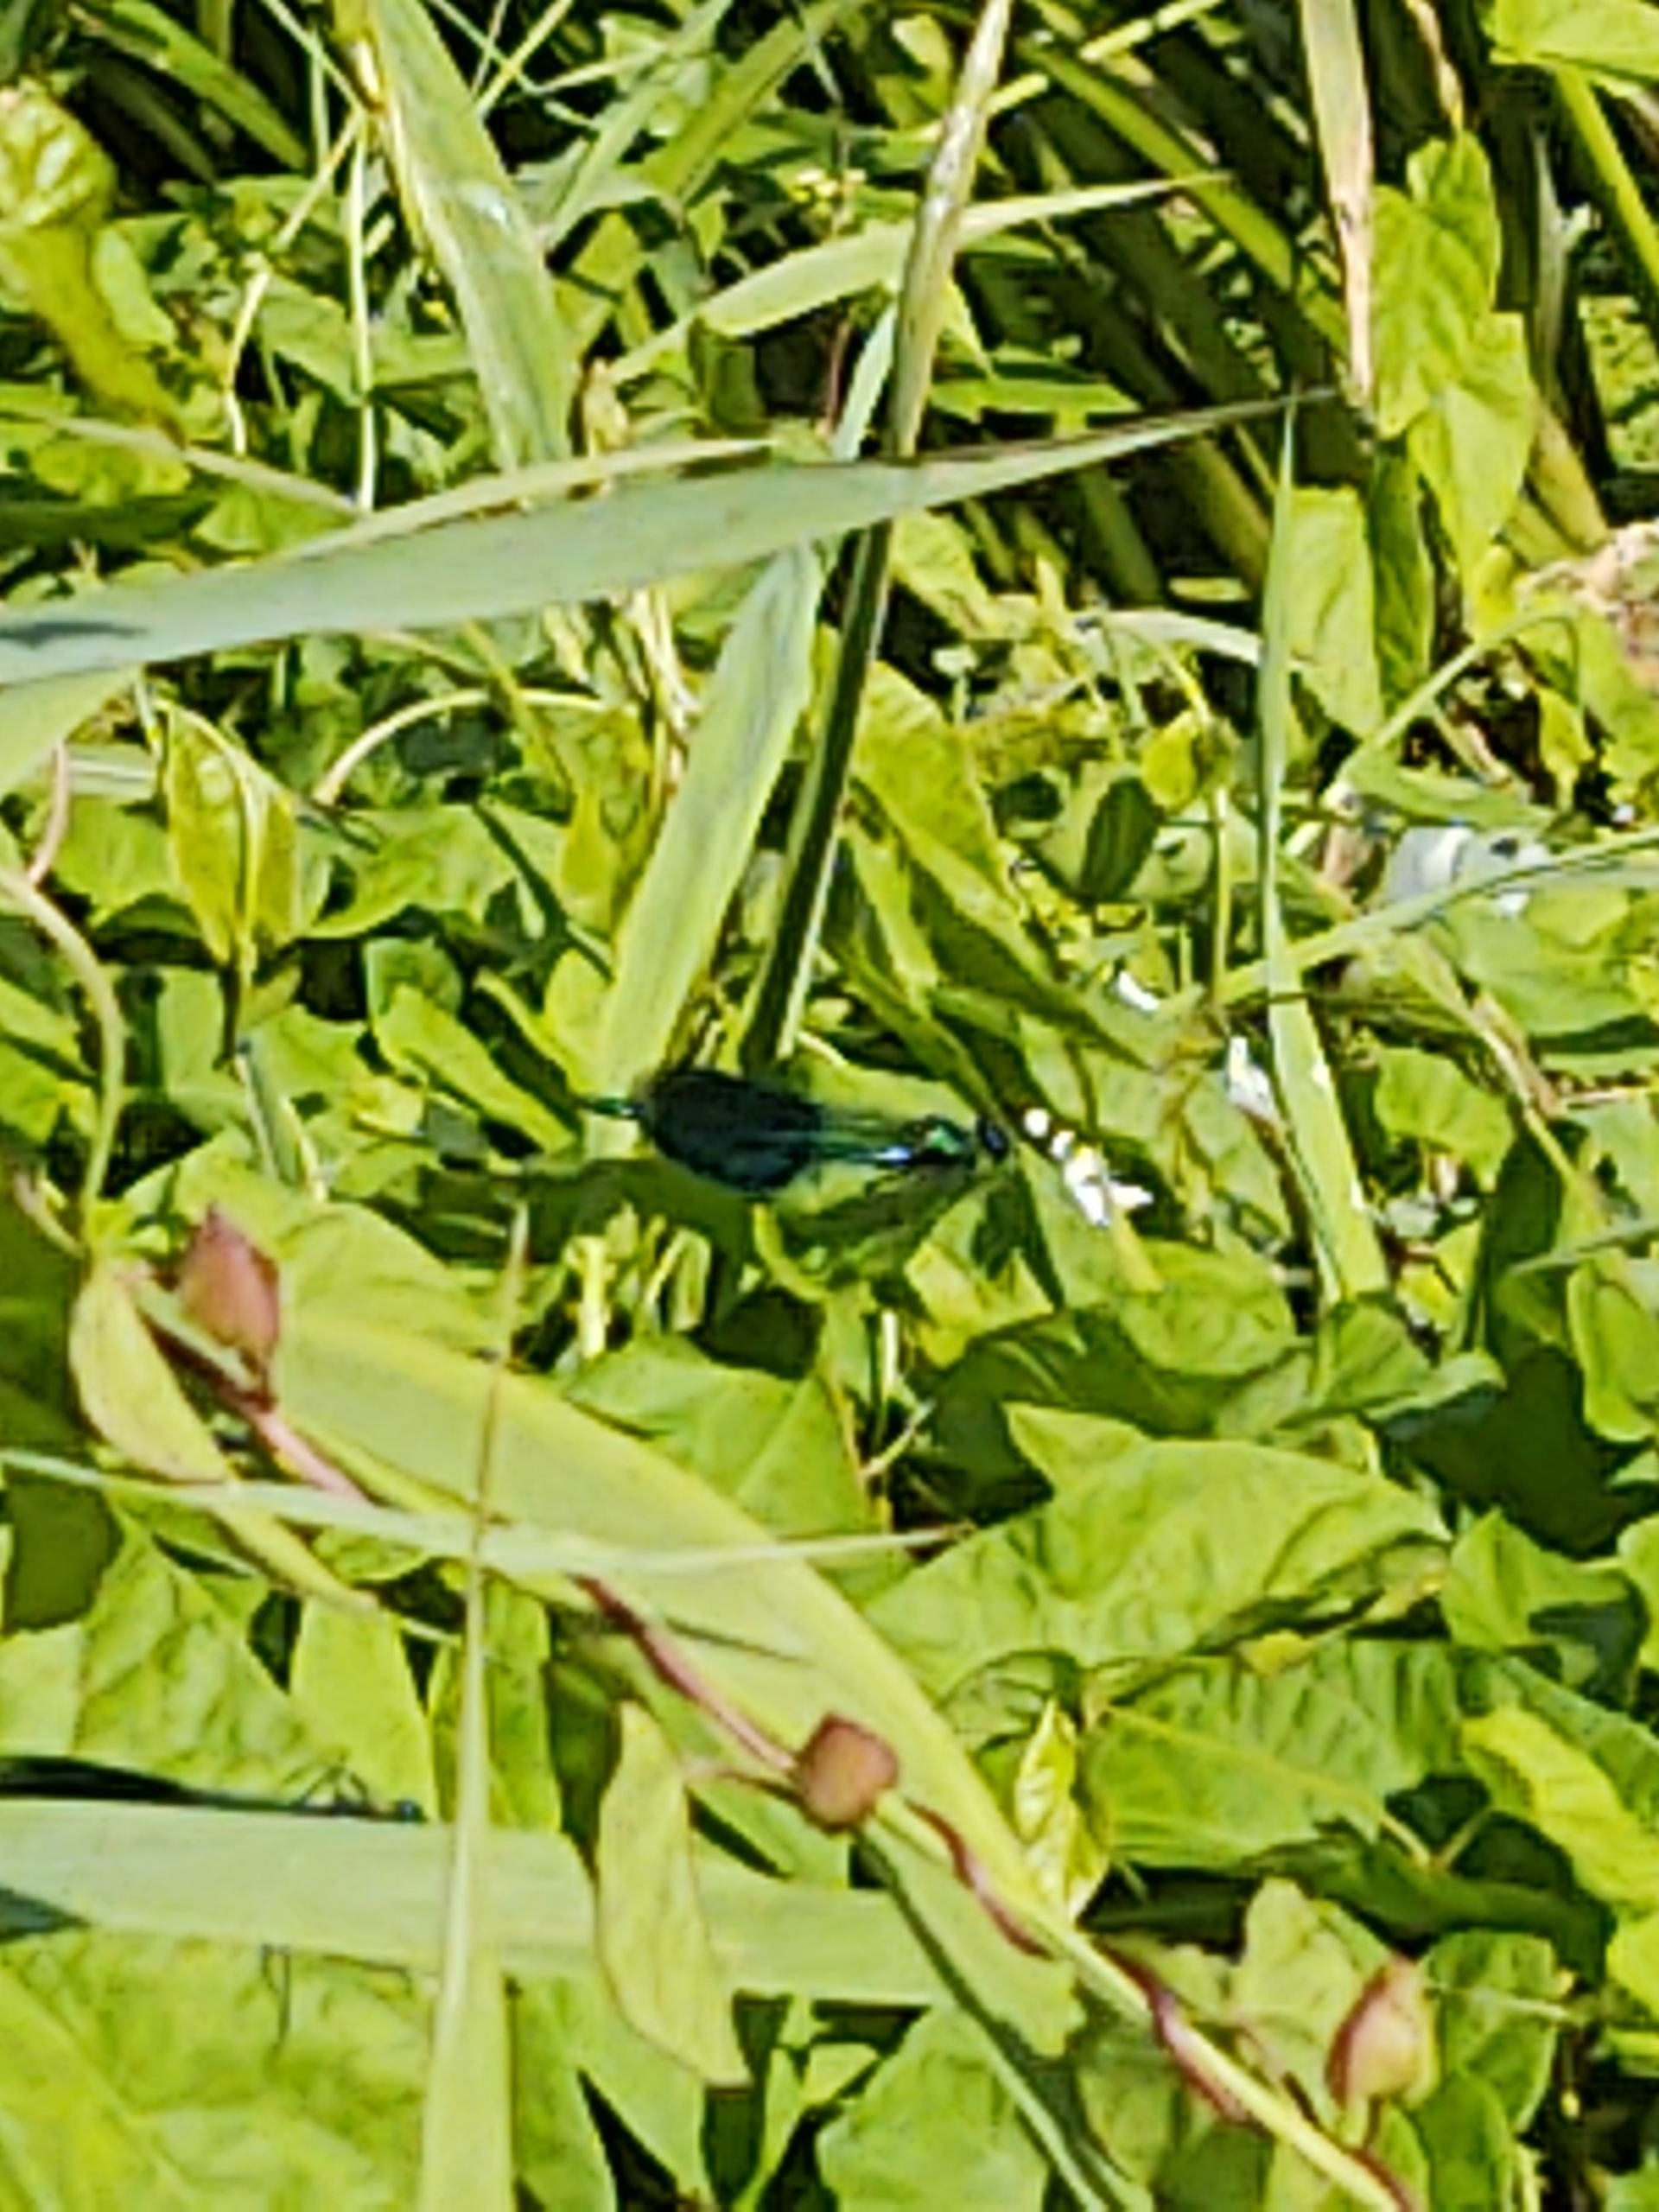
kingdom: Animalia
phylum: Arthropoda
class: Insecta
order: Odonata
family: Calopterygidae
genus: Calopteryx
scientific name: Calopteryx splendens
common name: Blåbåndet pragtvandnymfe
